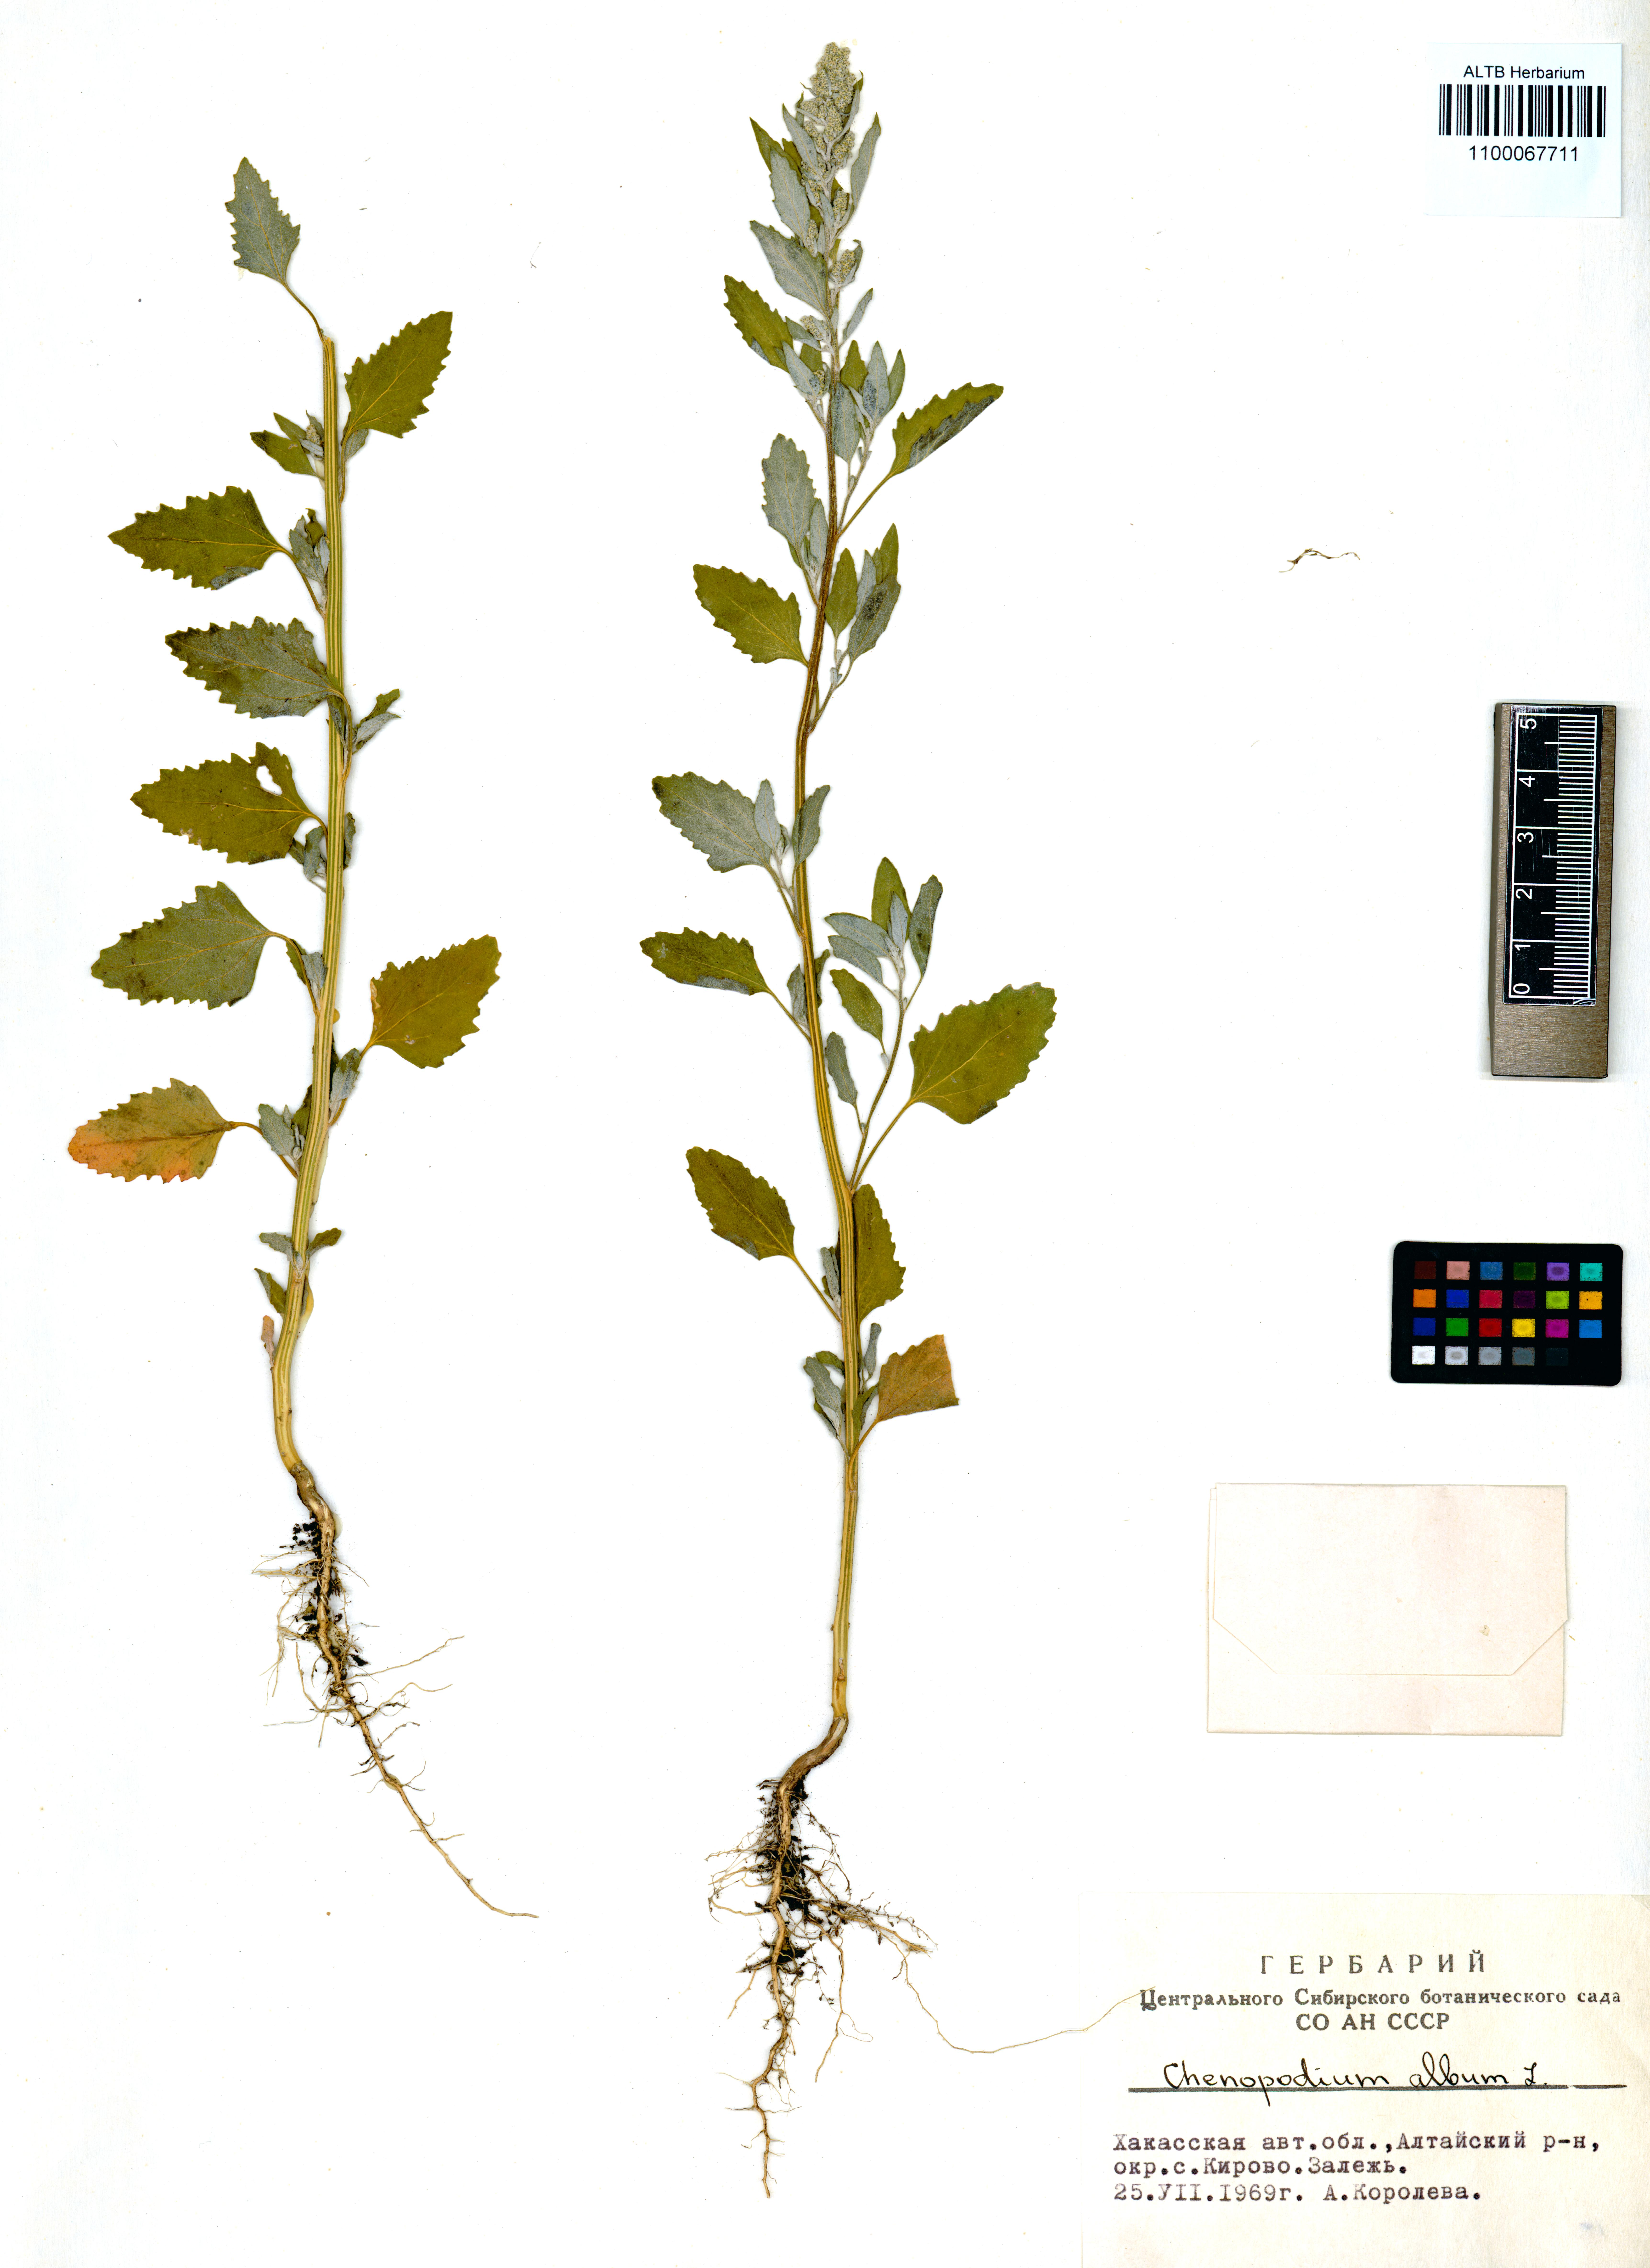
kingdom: Plantae
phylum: Tracheophyta
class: Magnoliopsida
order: Caryophyllales
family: Amaranthaceae
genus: Chenopodium
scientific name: Chenopodium album
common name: Fat-hen
